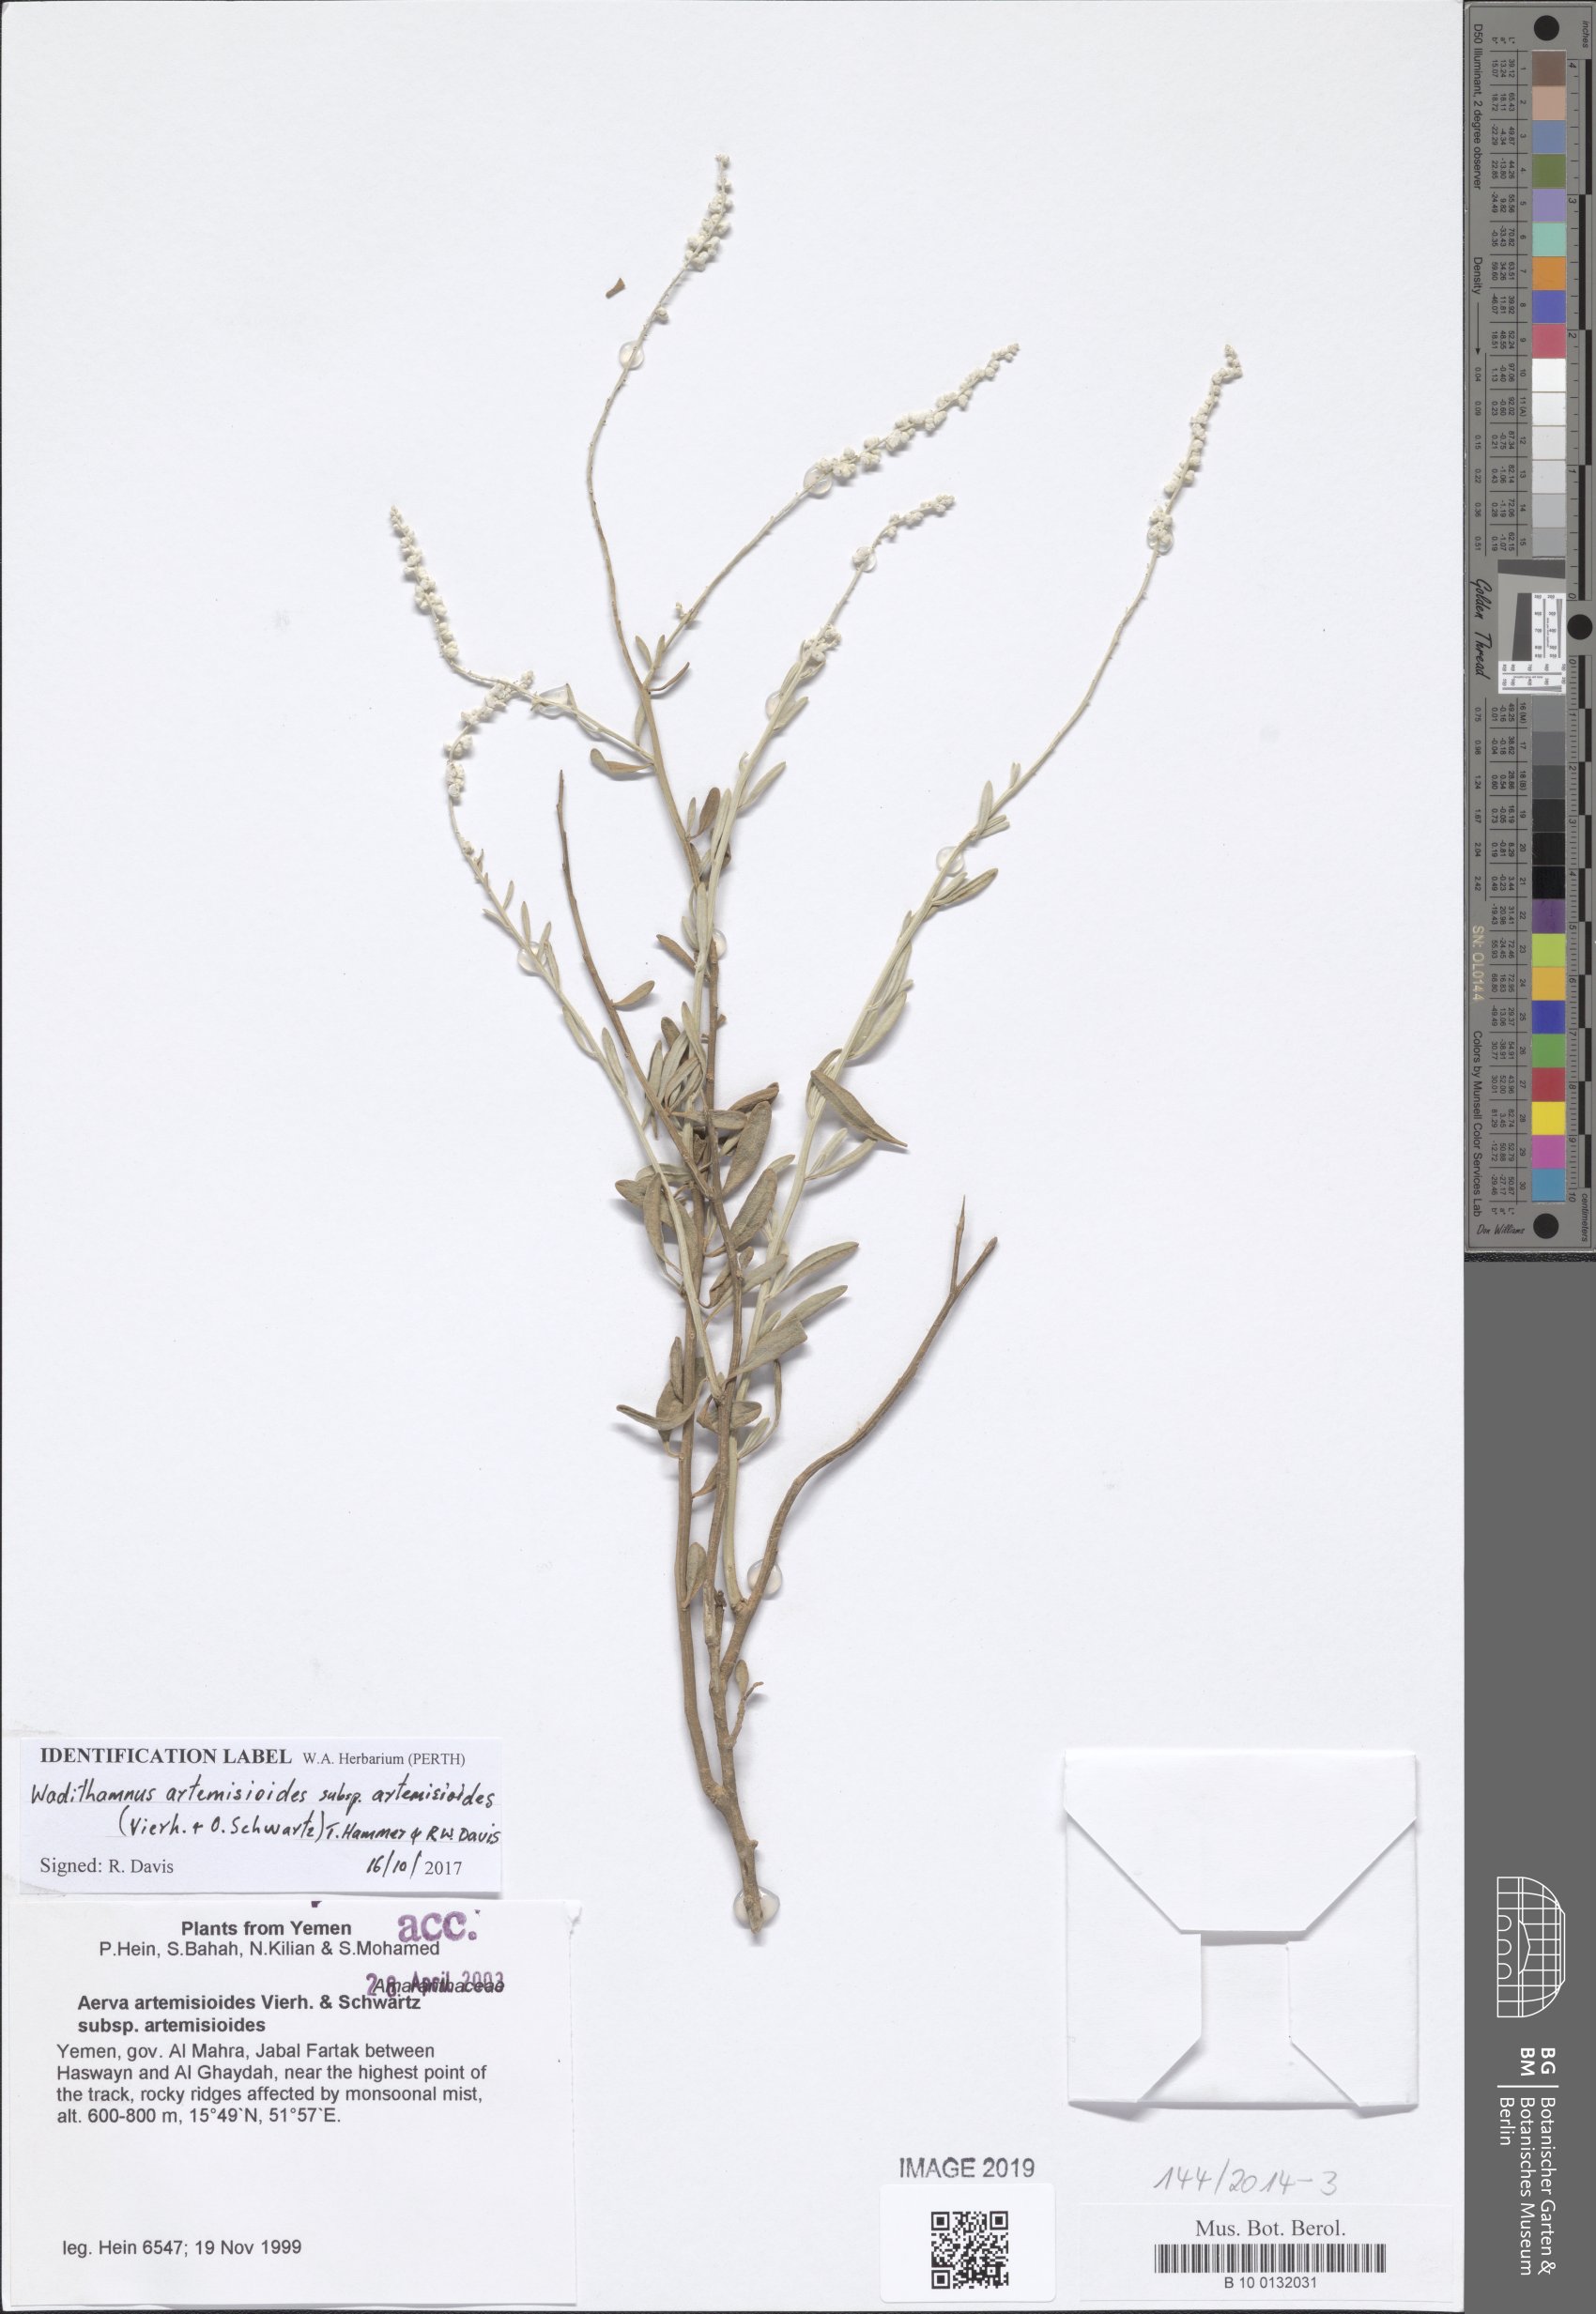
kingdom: Plantae
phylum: Tracheophyta
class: Magnoliopsida
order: Caryophyllales
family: Amaranthaceae
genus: Wadithamnus
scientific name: Wadithamnus artemisioides
